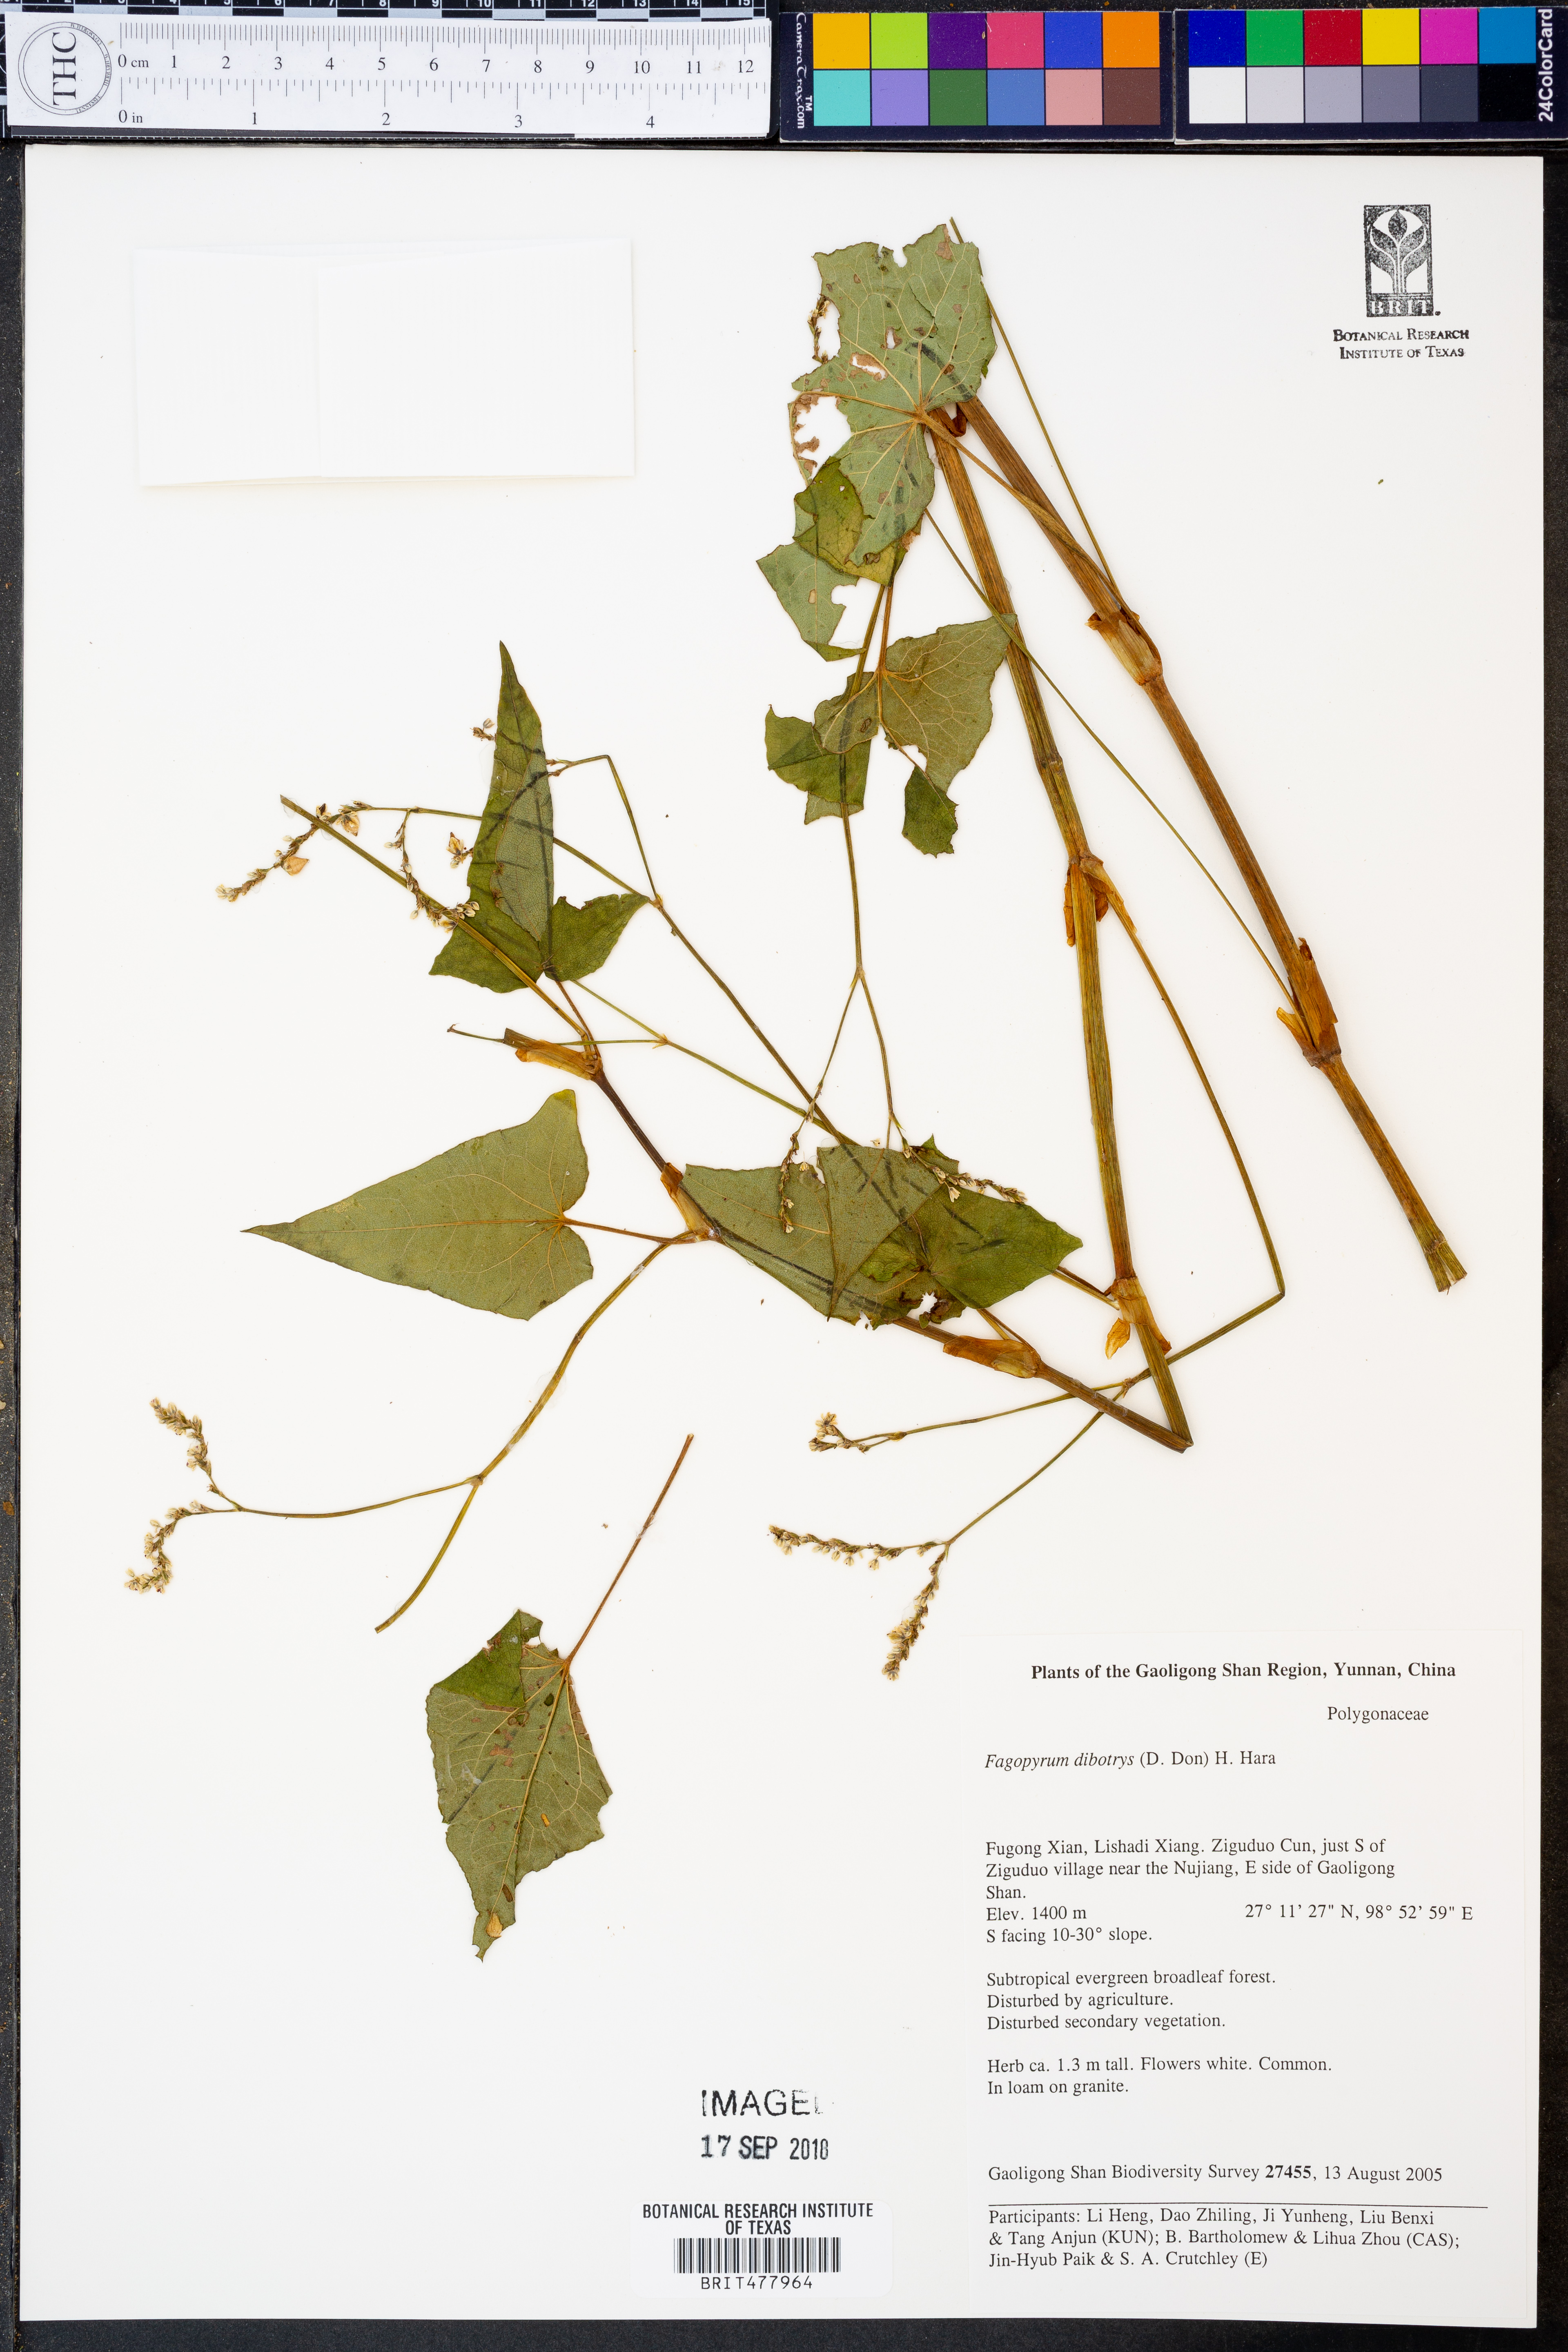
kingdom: Plantae
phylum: Tracheophyta
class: Magnoliopsida
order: Caryophyllales
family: Polygonaceae
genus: Fagopyrum
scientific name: Fagopyrum cymosum
